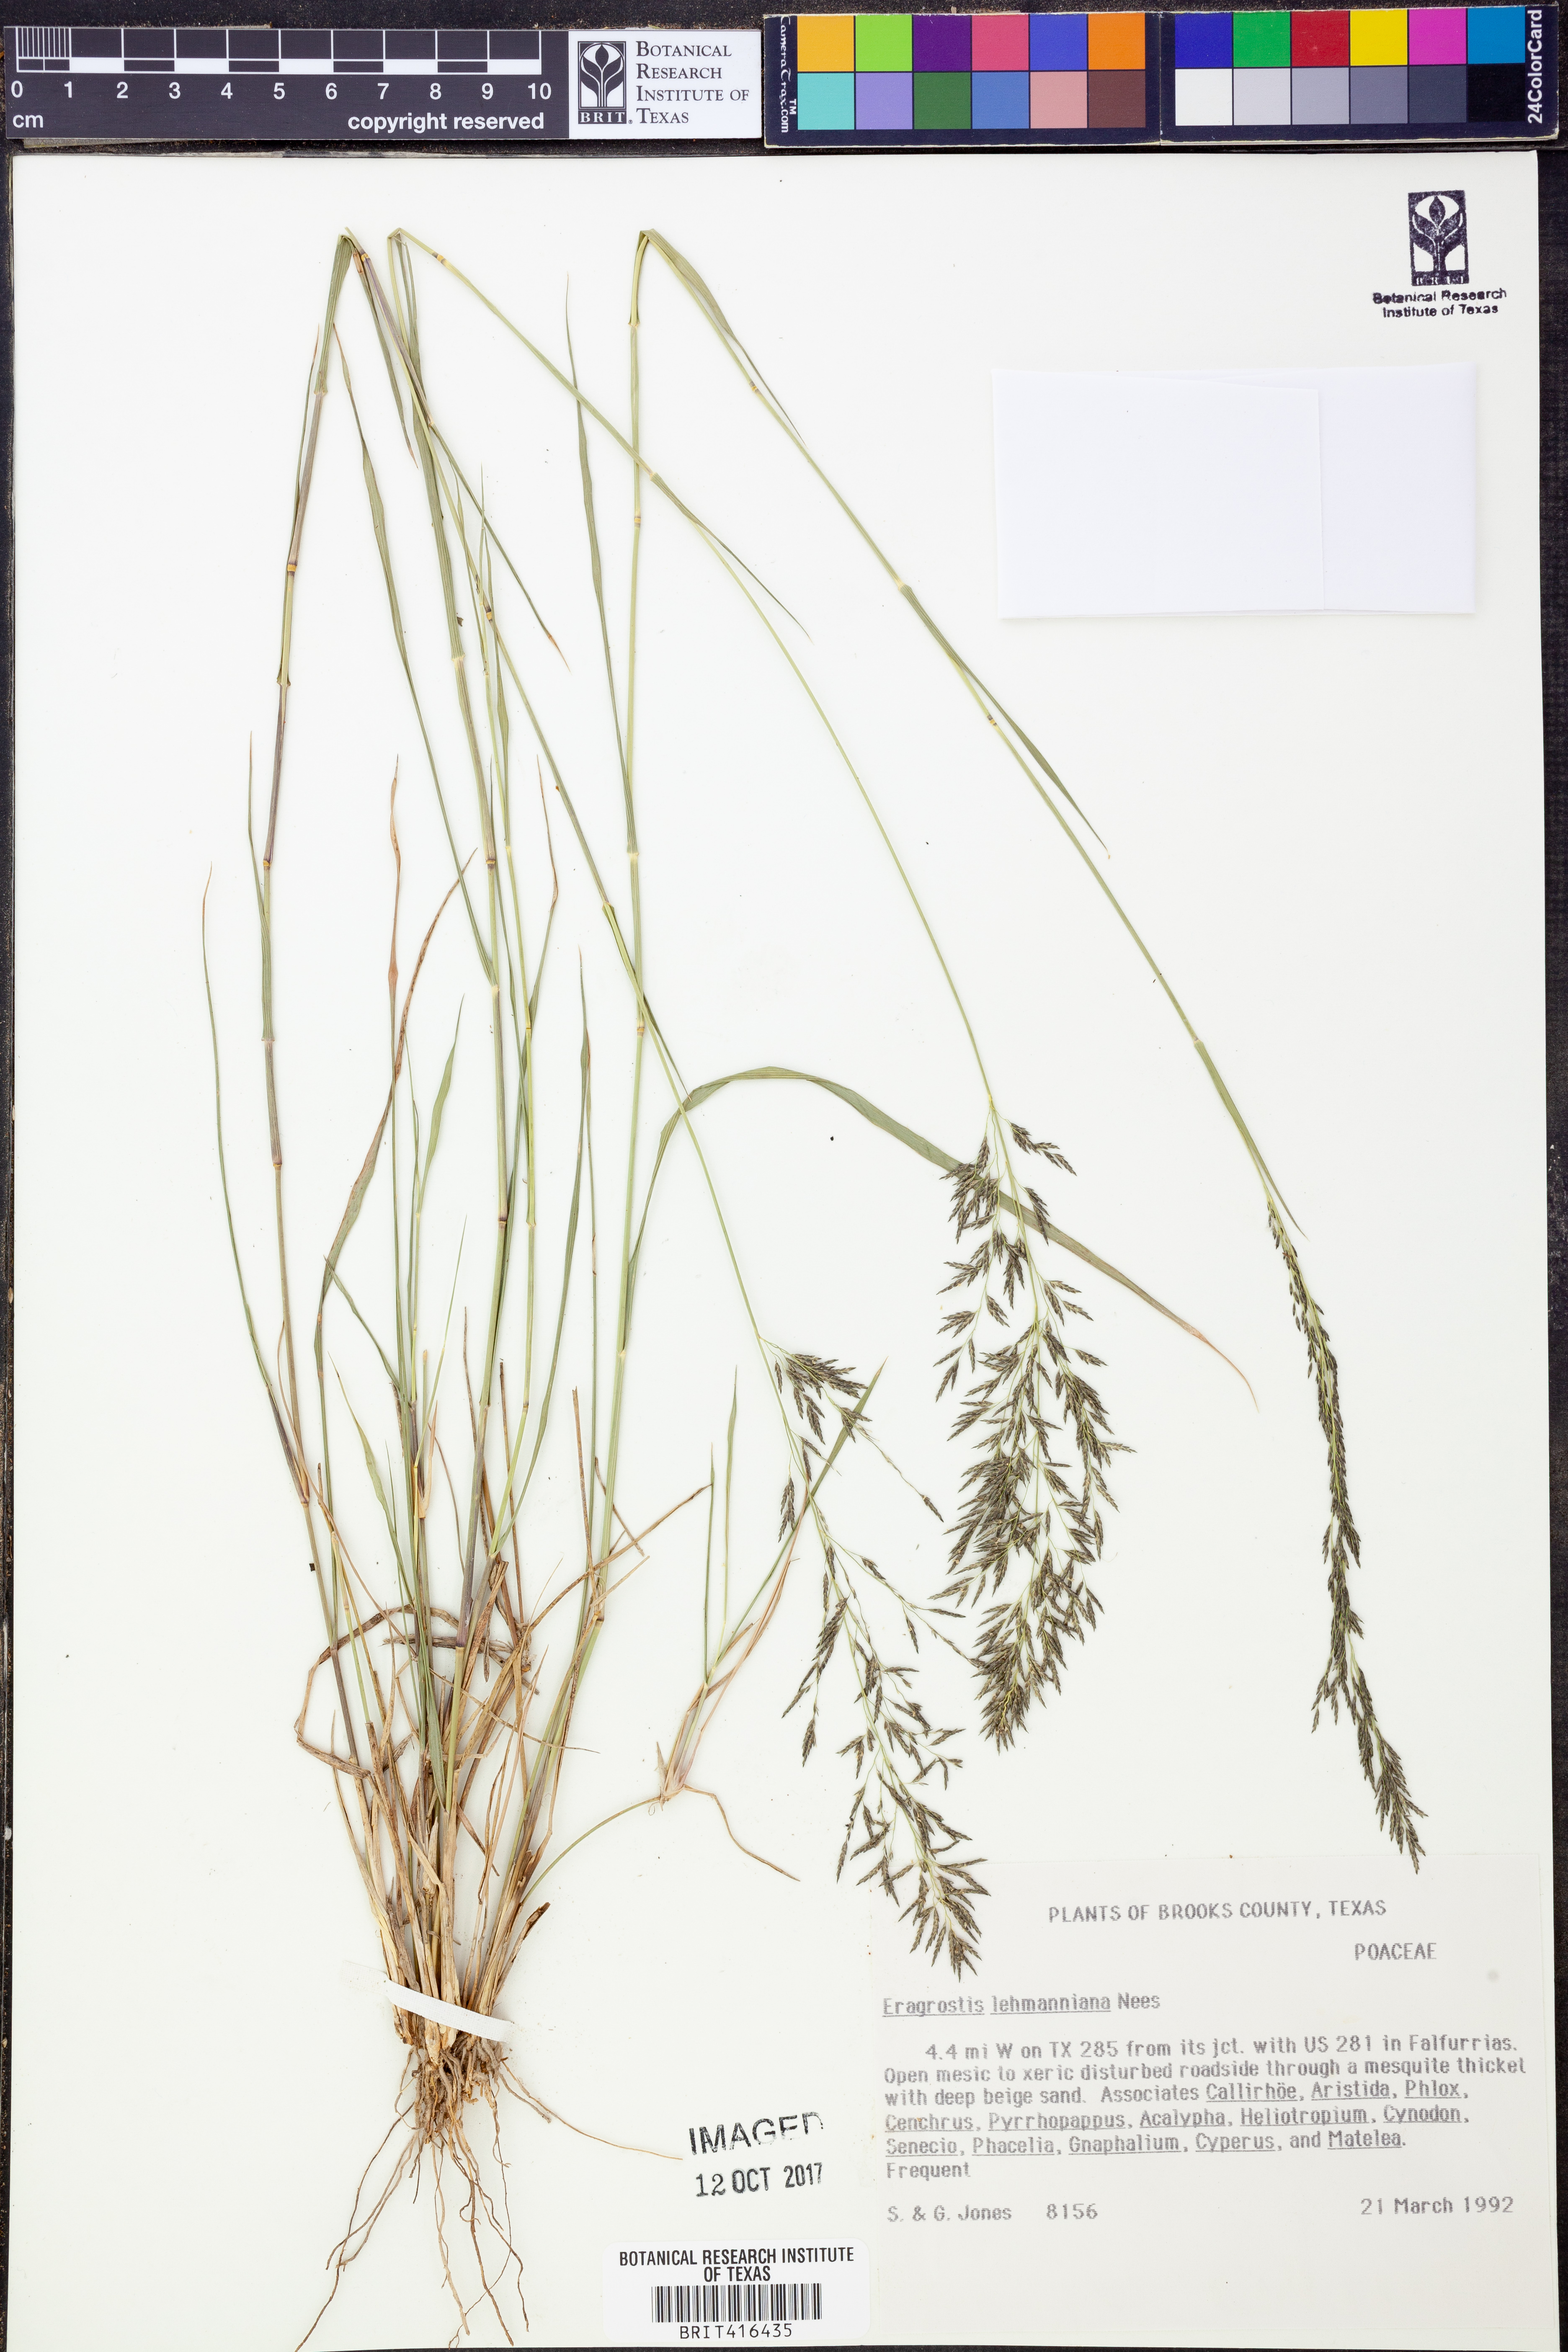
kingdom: Plantae
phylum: Tracheophyta
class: Liliopsida
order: Poales
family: Poaceae
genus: Eragrostis
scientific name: Eragrostis lehmanniana
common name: Lehmann lovegrass
